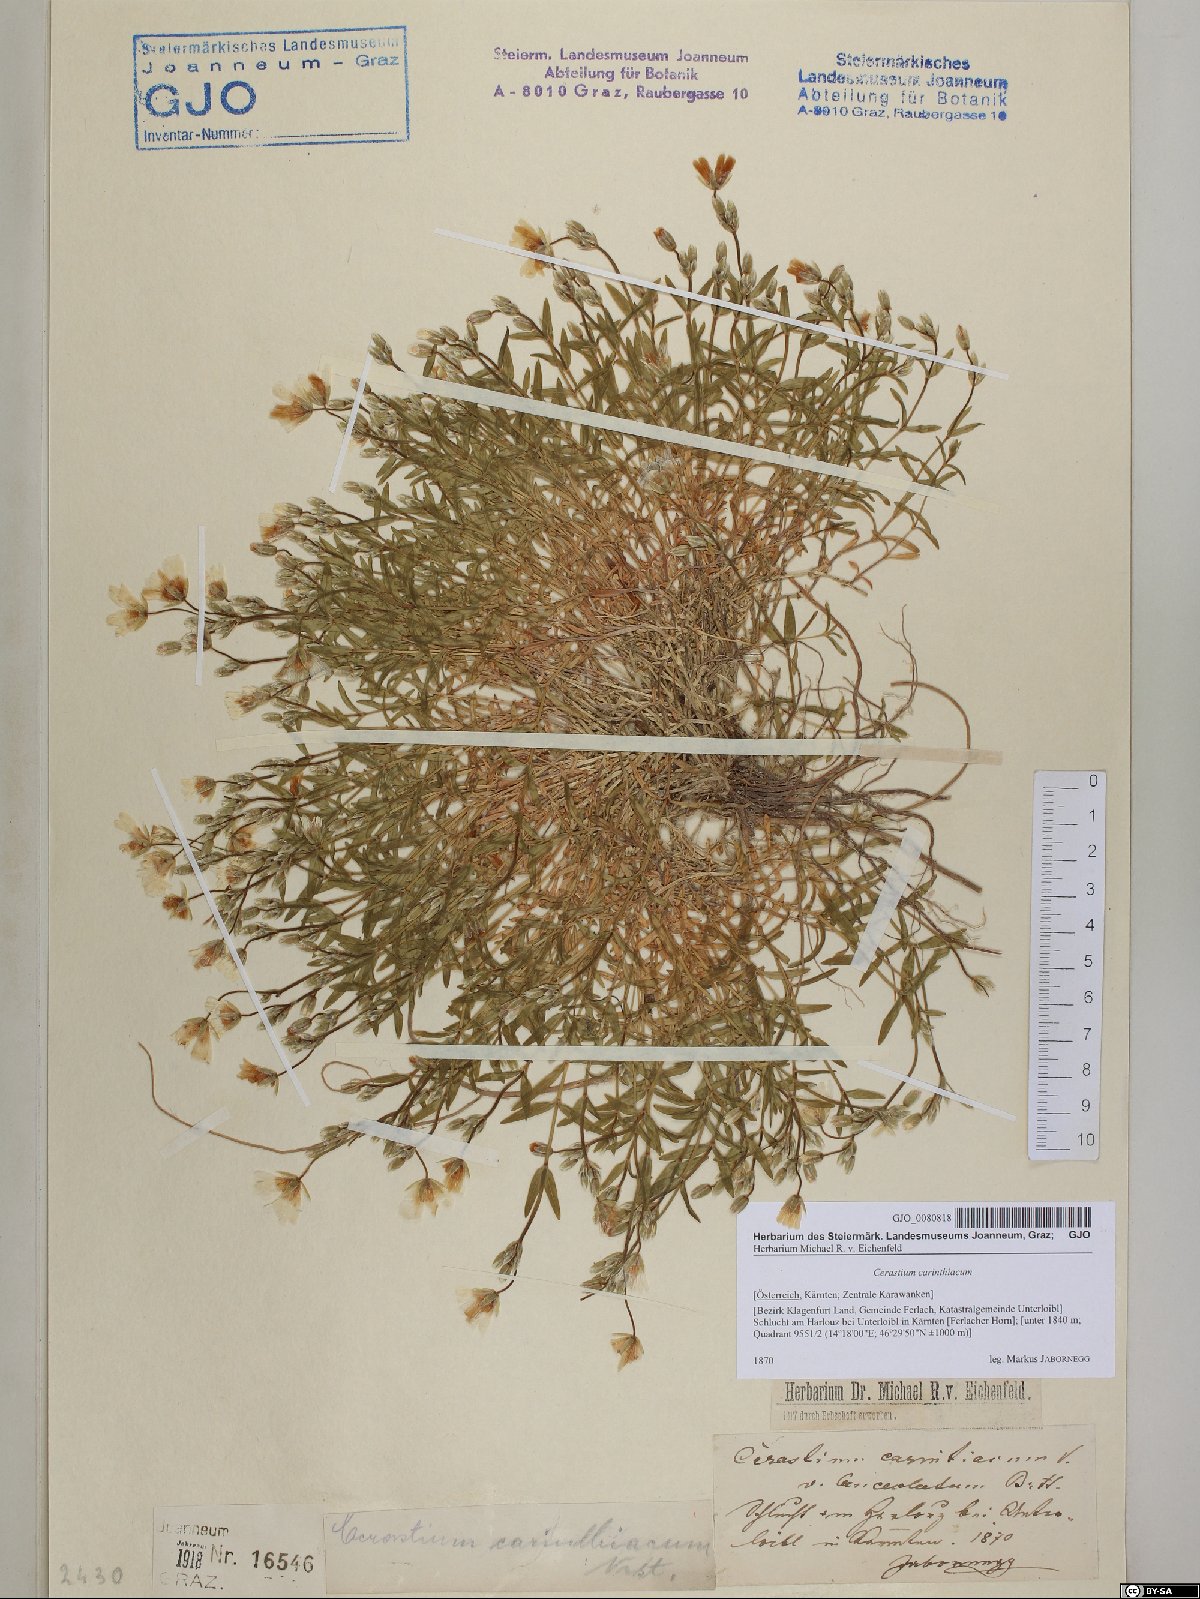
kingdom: Plantae
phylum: Tracheophyta
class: Magnoliopsida
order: Caryophyllales
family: Caryophyllaceae
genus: Cerastium
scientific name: Cerastium carinthiacum
